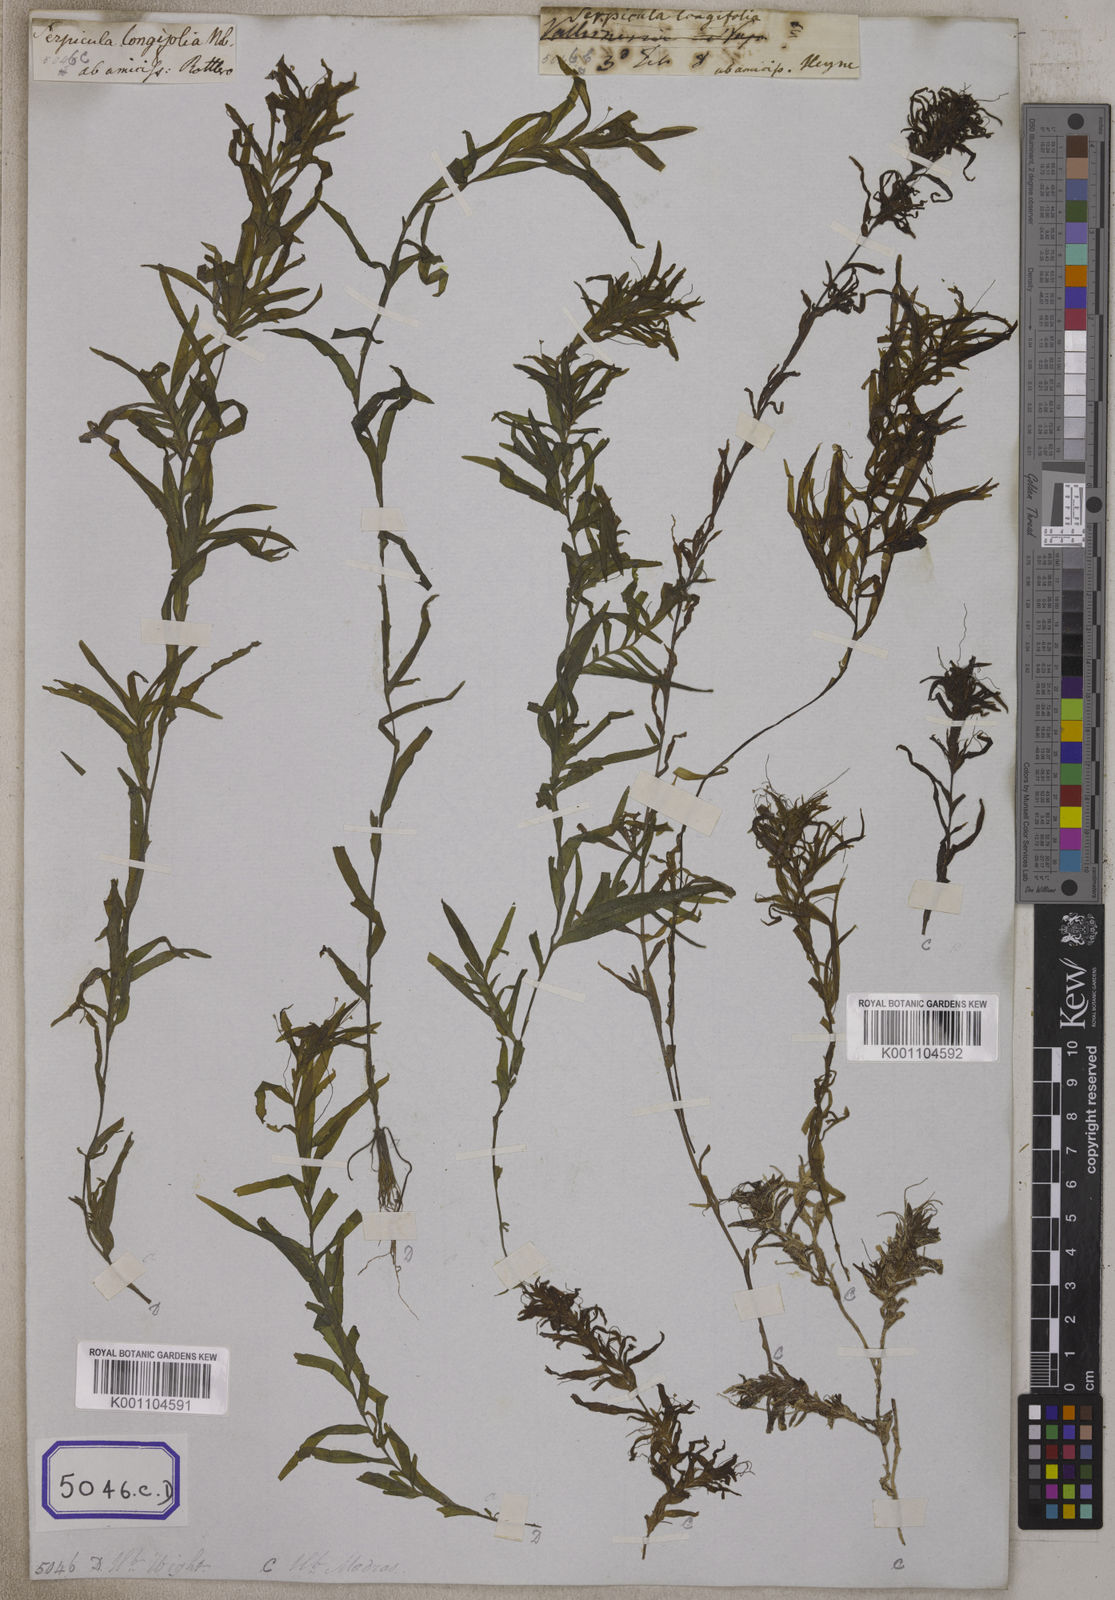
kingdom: Plantae
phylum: Tracheophyta
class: Liliopsida
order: Alismatales
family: Hydrocharitaceae
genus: Vallisneria
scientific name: Vallisneria
